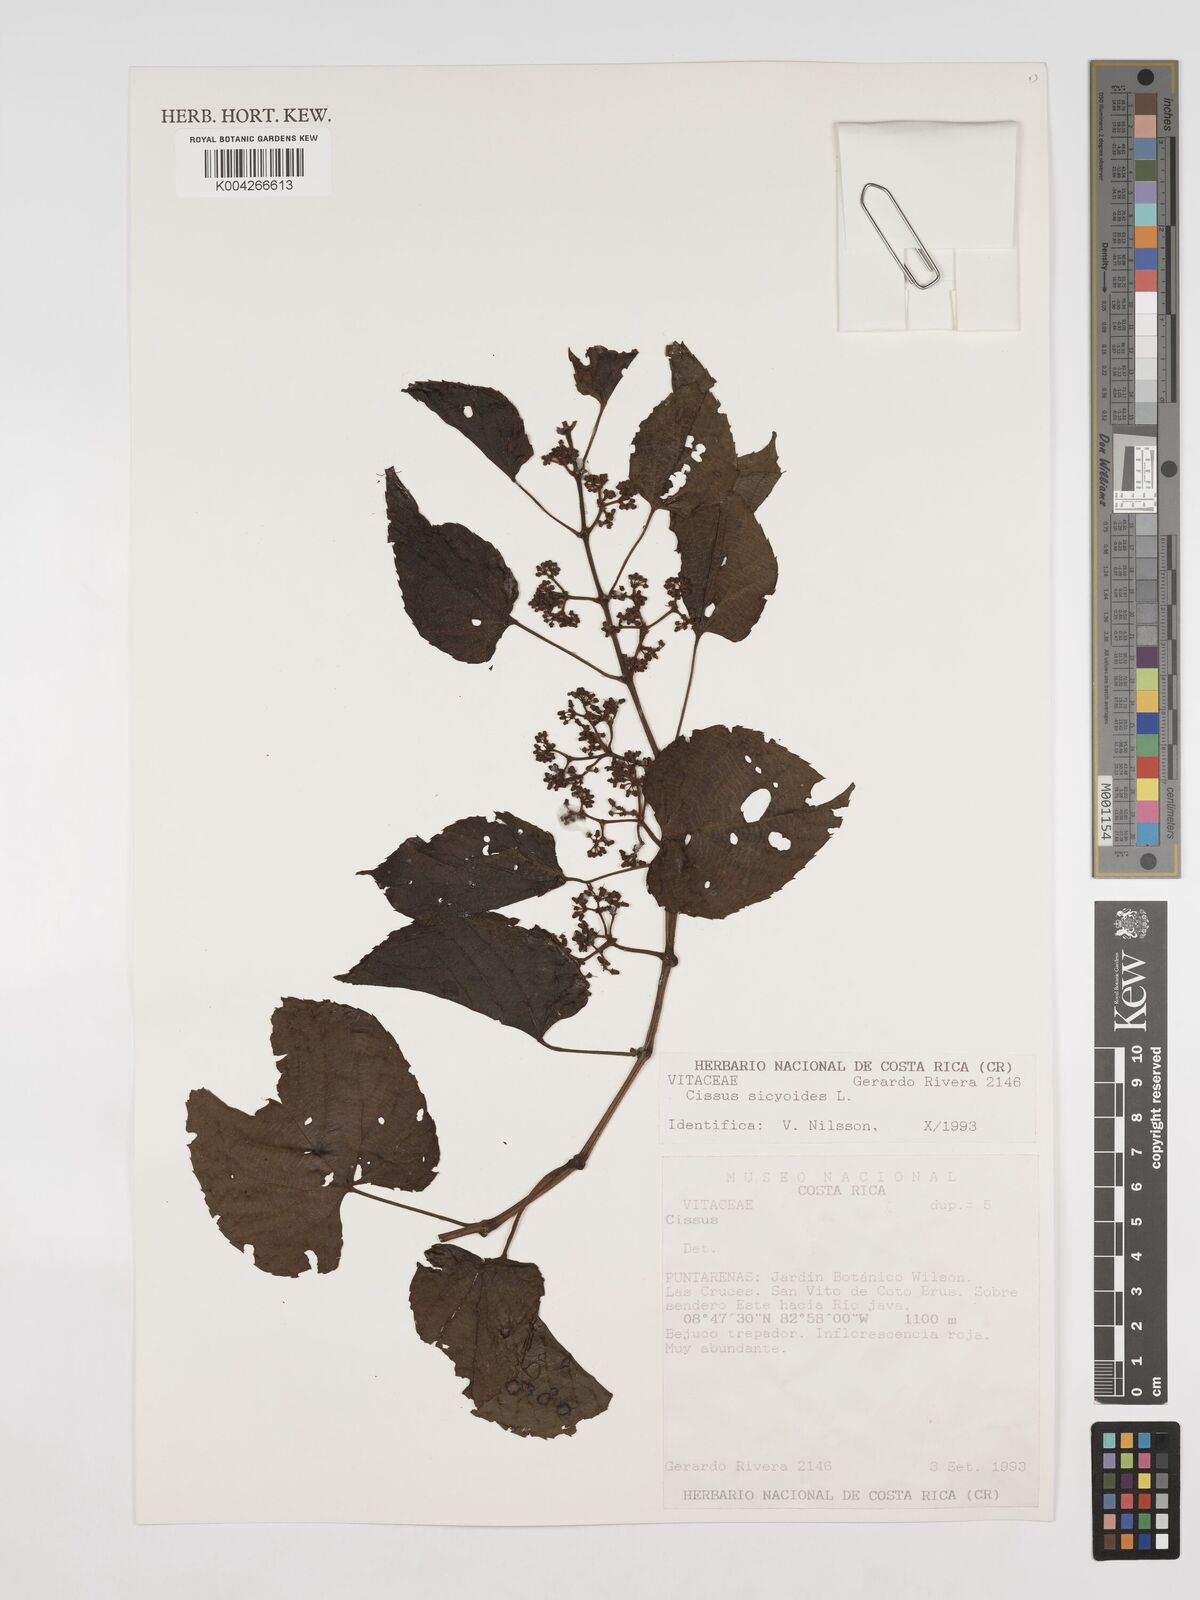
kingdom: Plantae
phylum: Tracheophyta
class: Magnoliopsida
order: Vitales
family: Vitaceae
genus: Cissus
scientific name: Cissus
